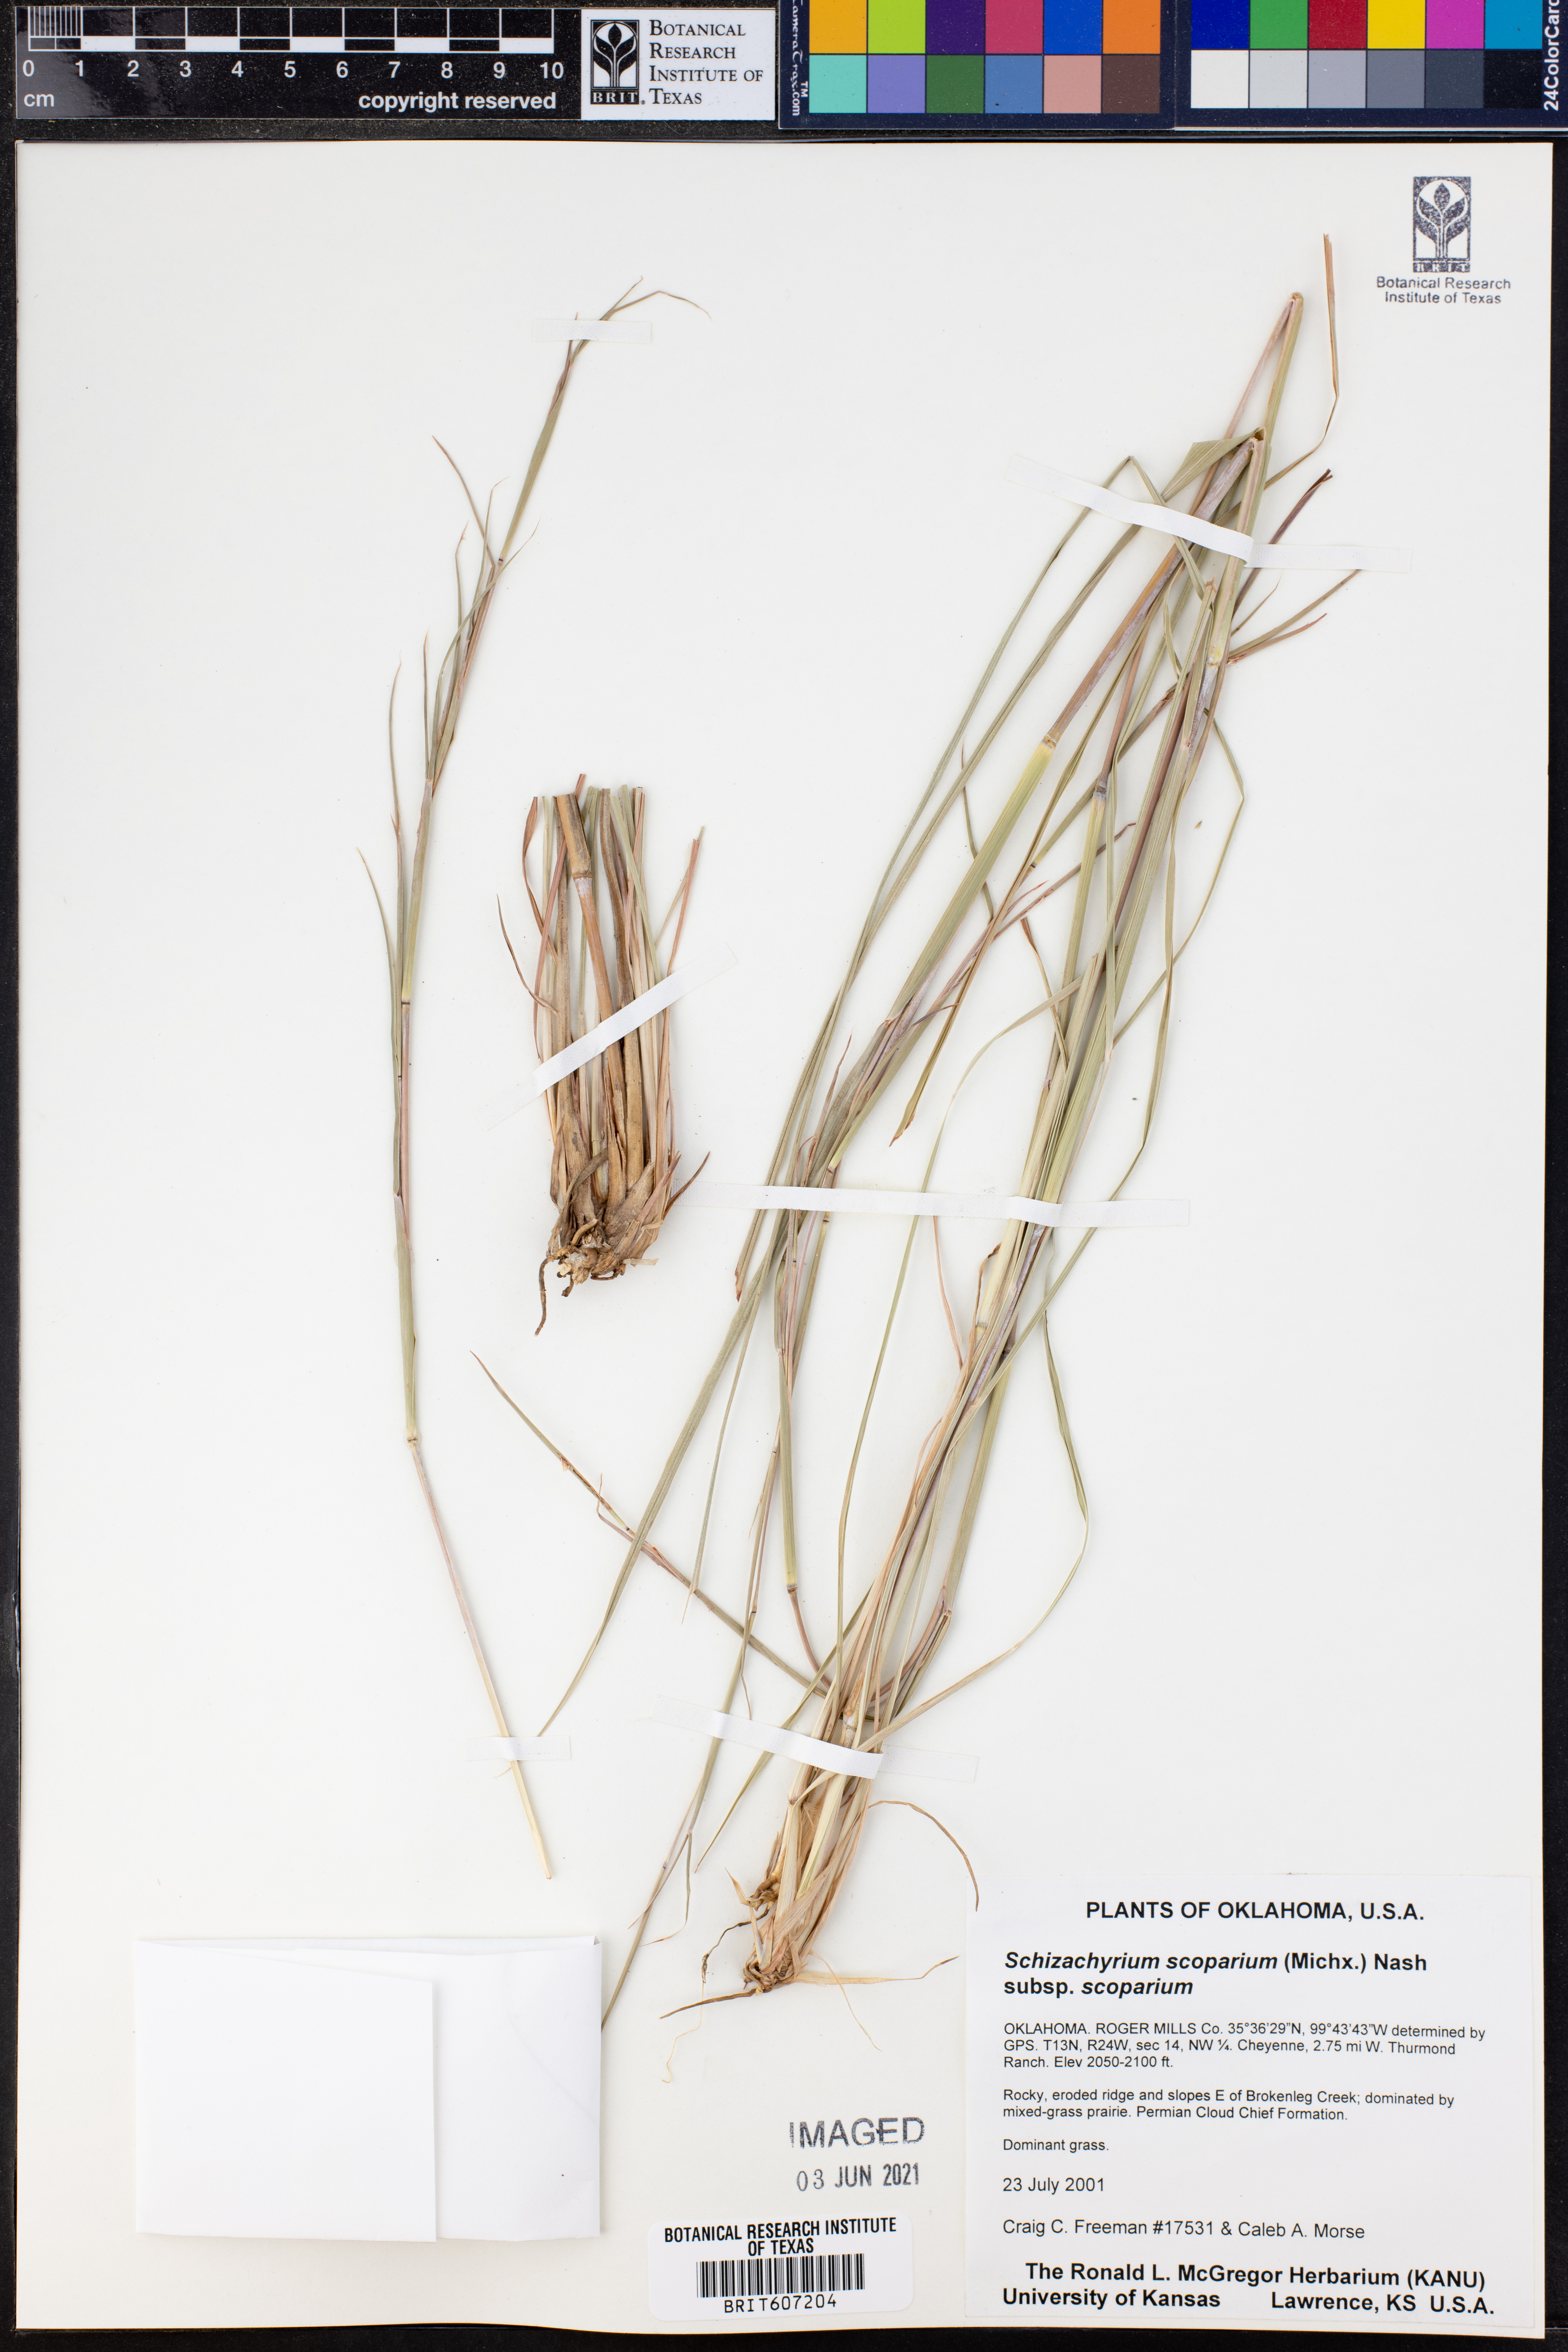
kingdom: Plantae
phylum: Tracheophyta
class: Liliopsida
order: Poales
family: Poaceae
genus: Schizachyrium
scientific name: Schizachyrium scoparium
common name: Little bluestem
